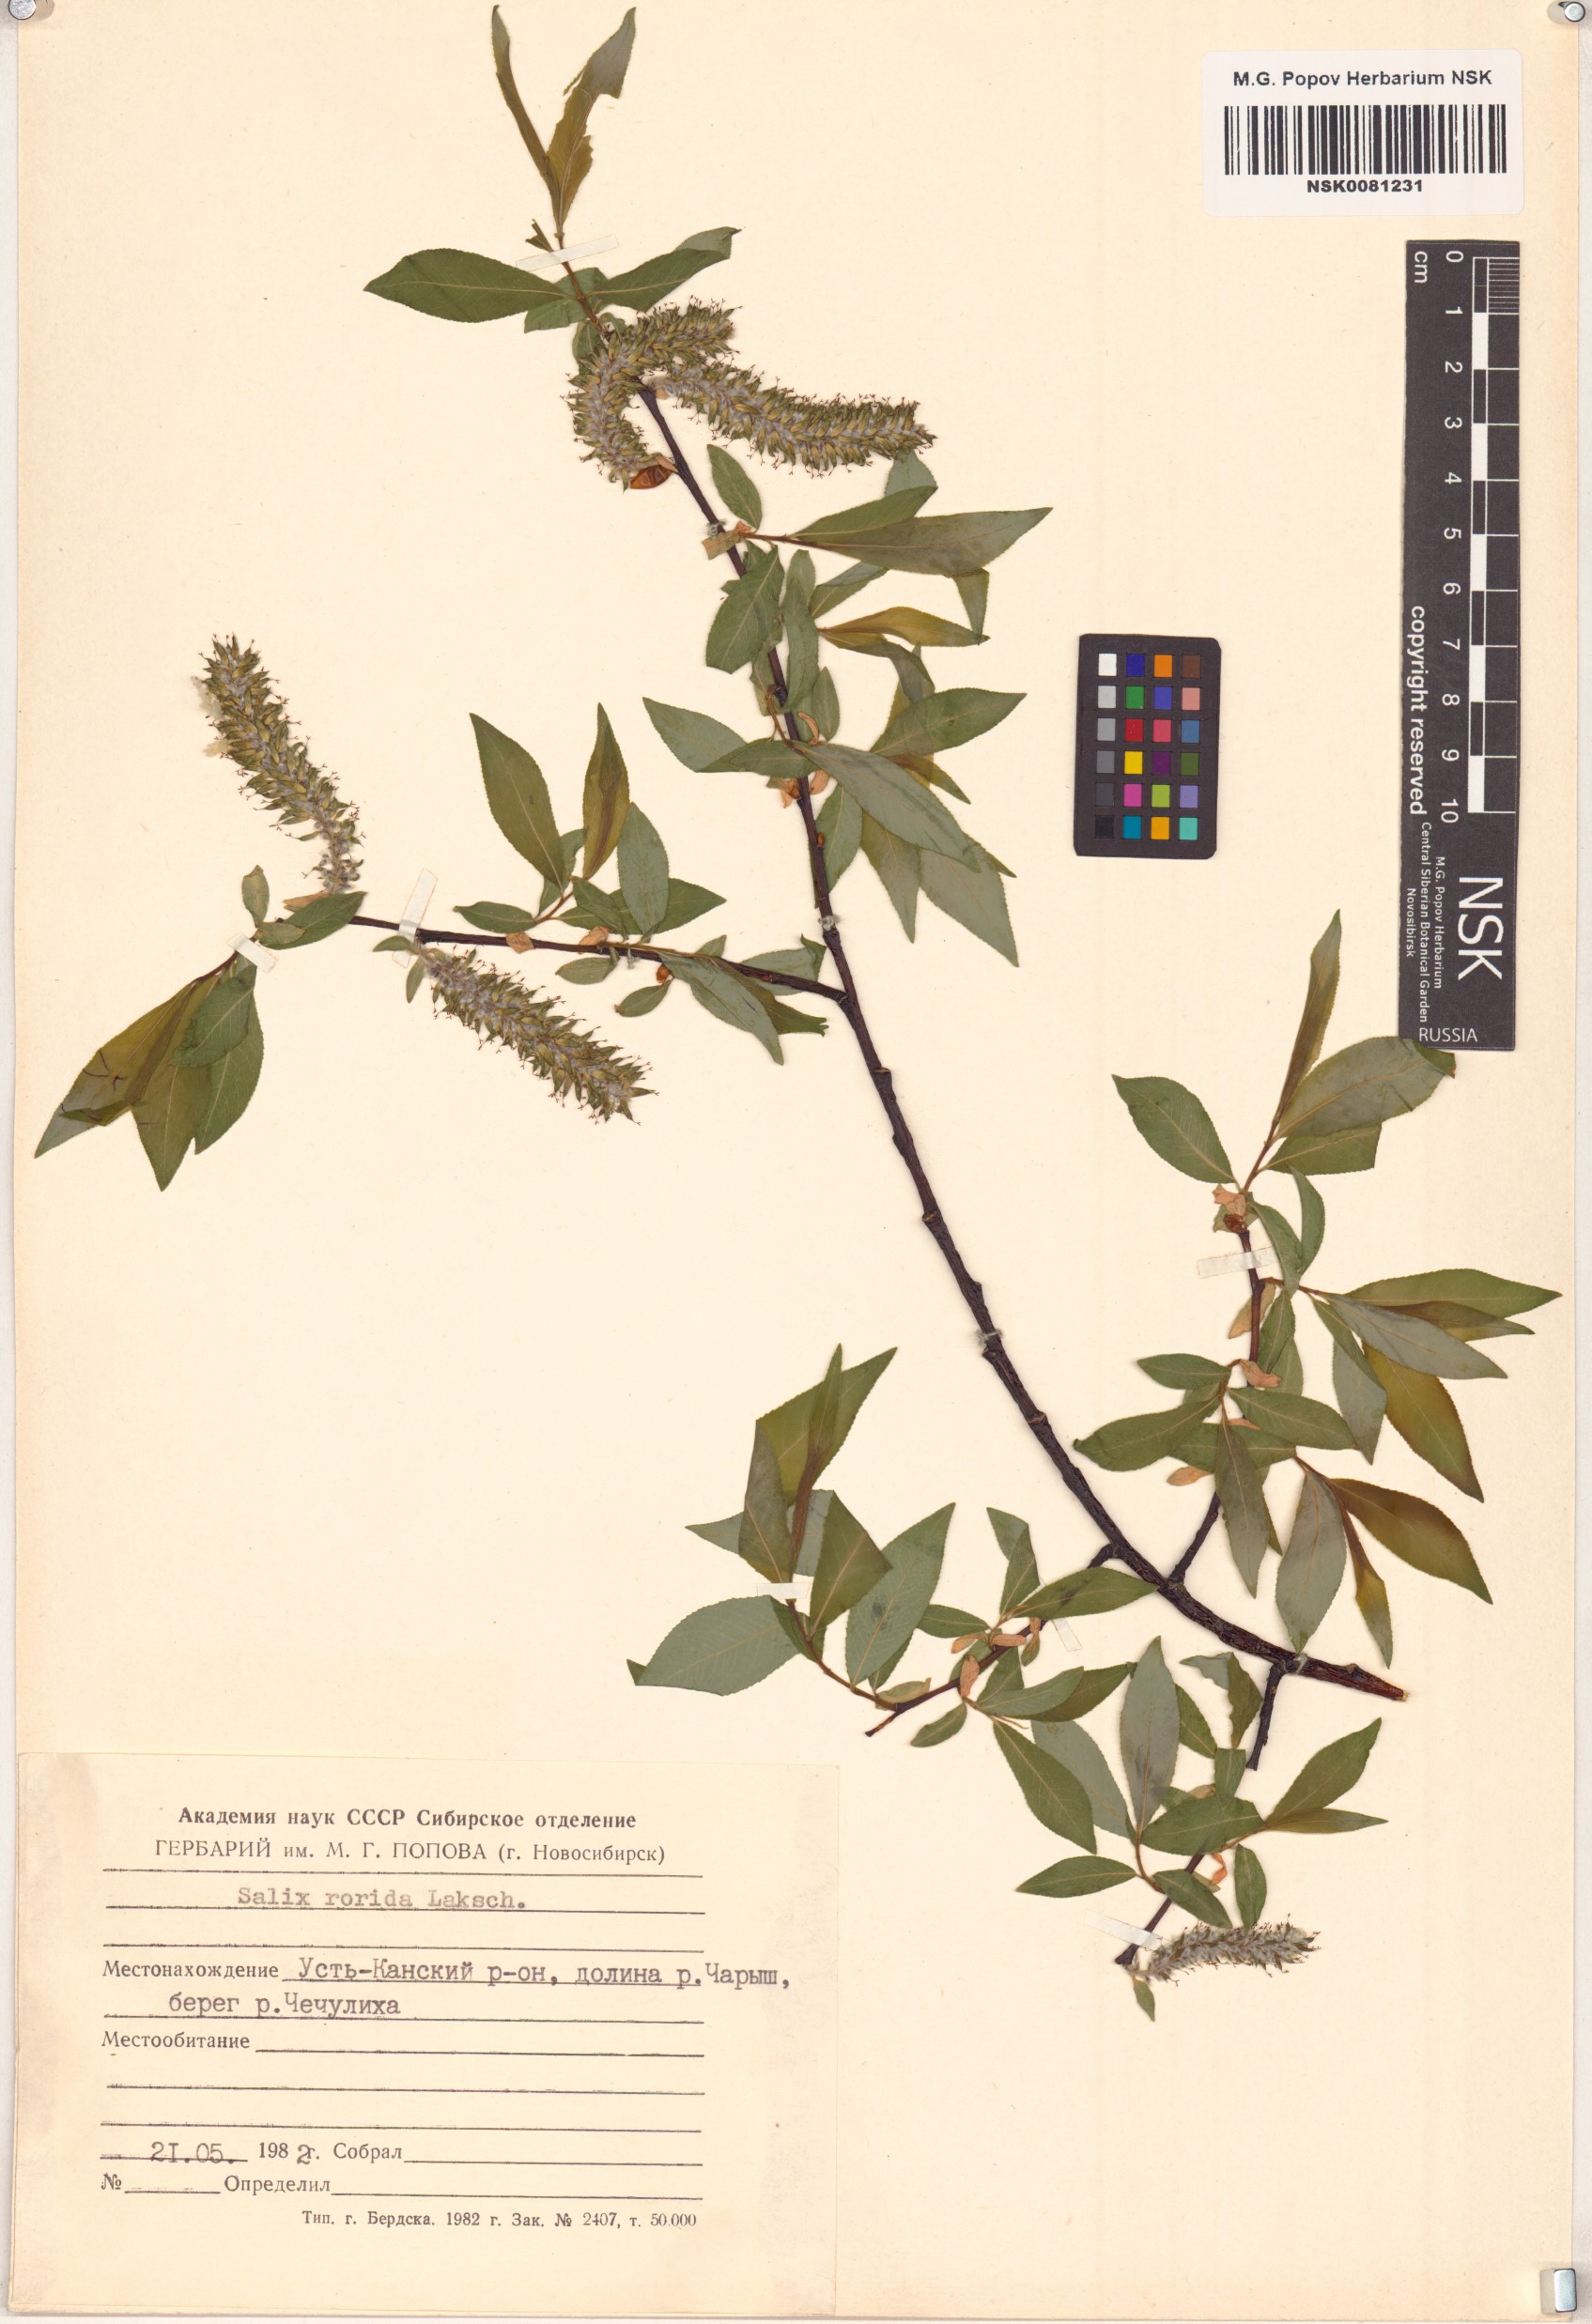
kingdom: Plantae
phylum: Tracheophyta
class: Magnoliopsida
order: Malpighiales
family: Salicaceae
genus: Salix
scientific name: Salix rorida
